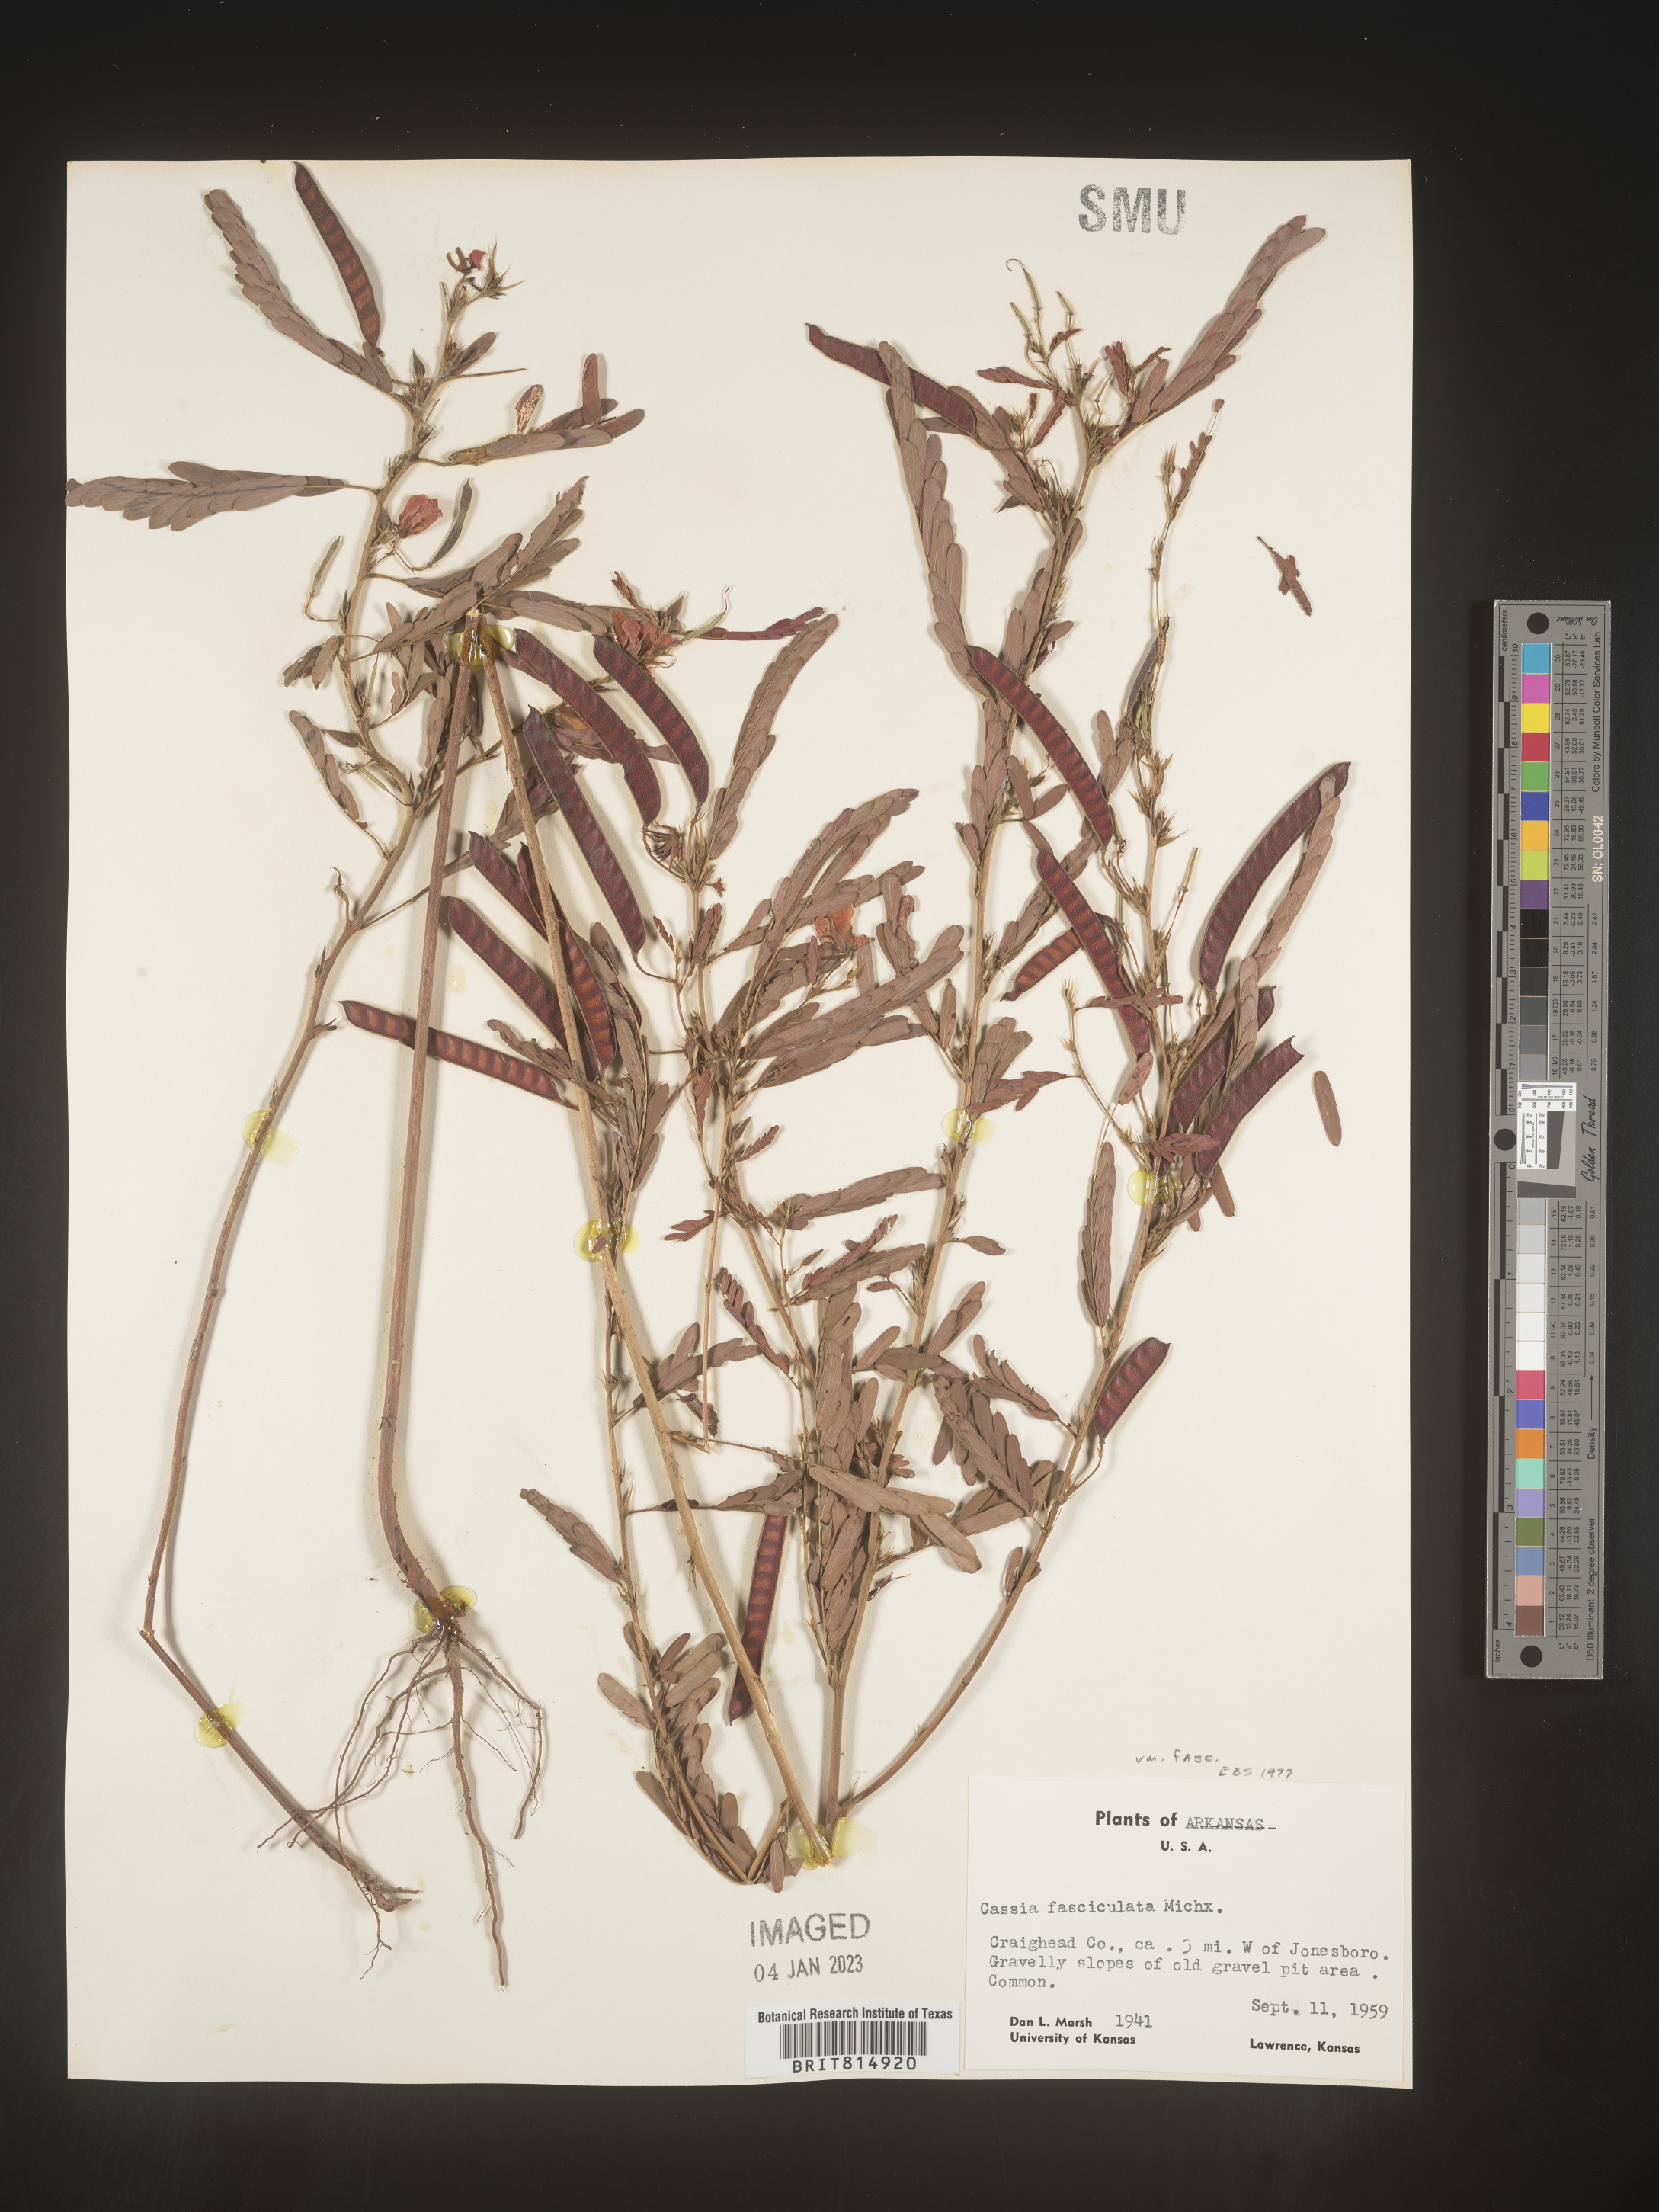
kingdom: Plantae
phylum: Tracheophyta
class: Magnoliopsida
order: Fabales
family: Fabaceae
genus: Chamaecrista
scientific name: Chamaecrista fasciculata
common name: Golden cassia
